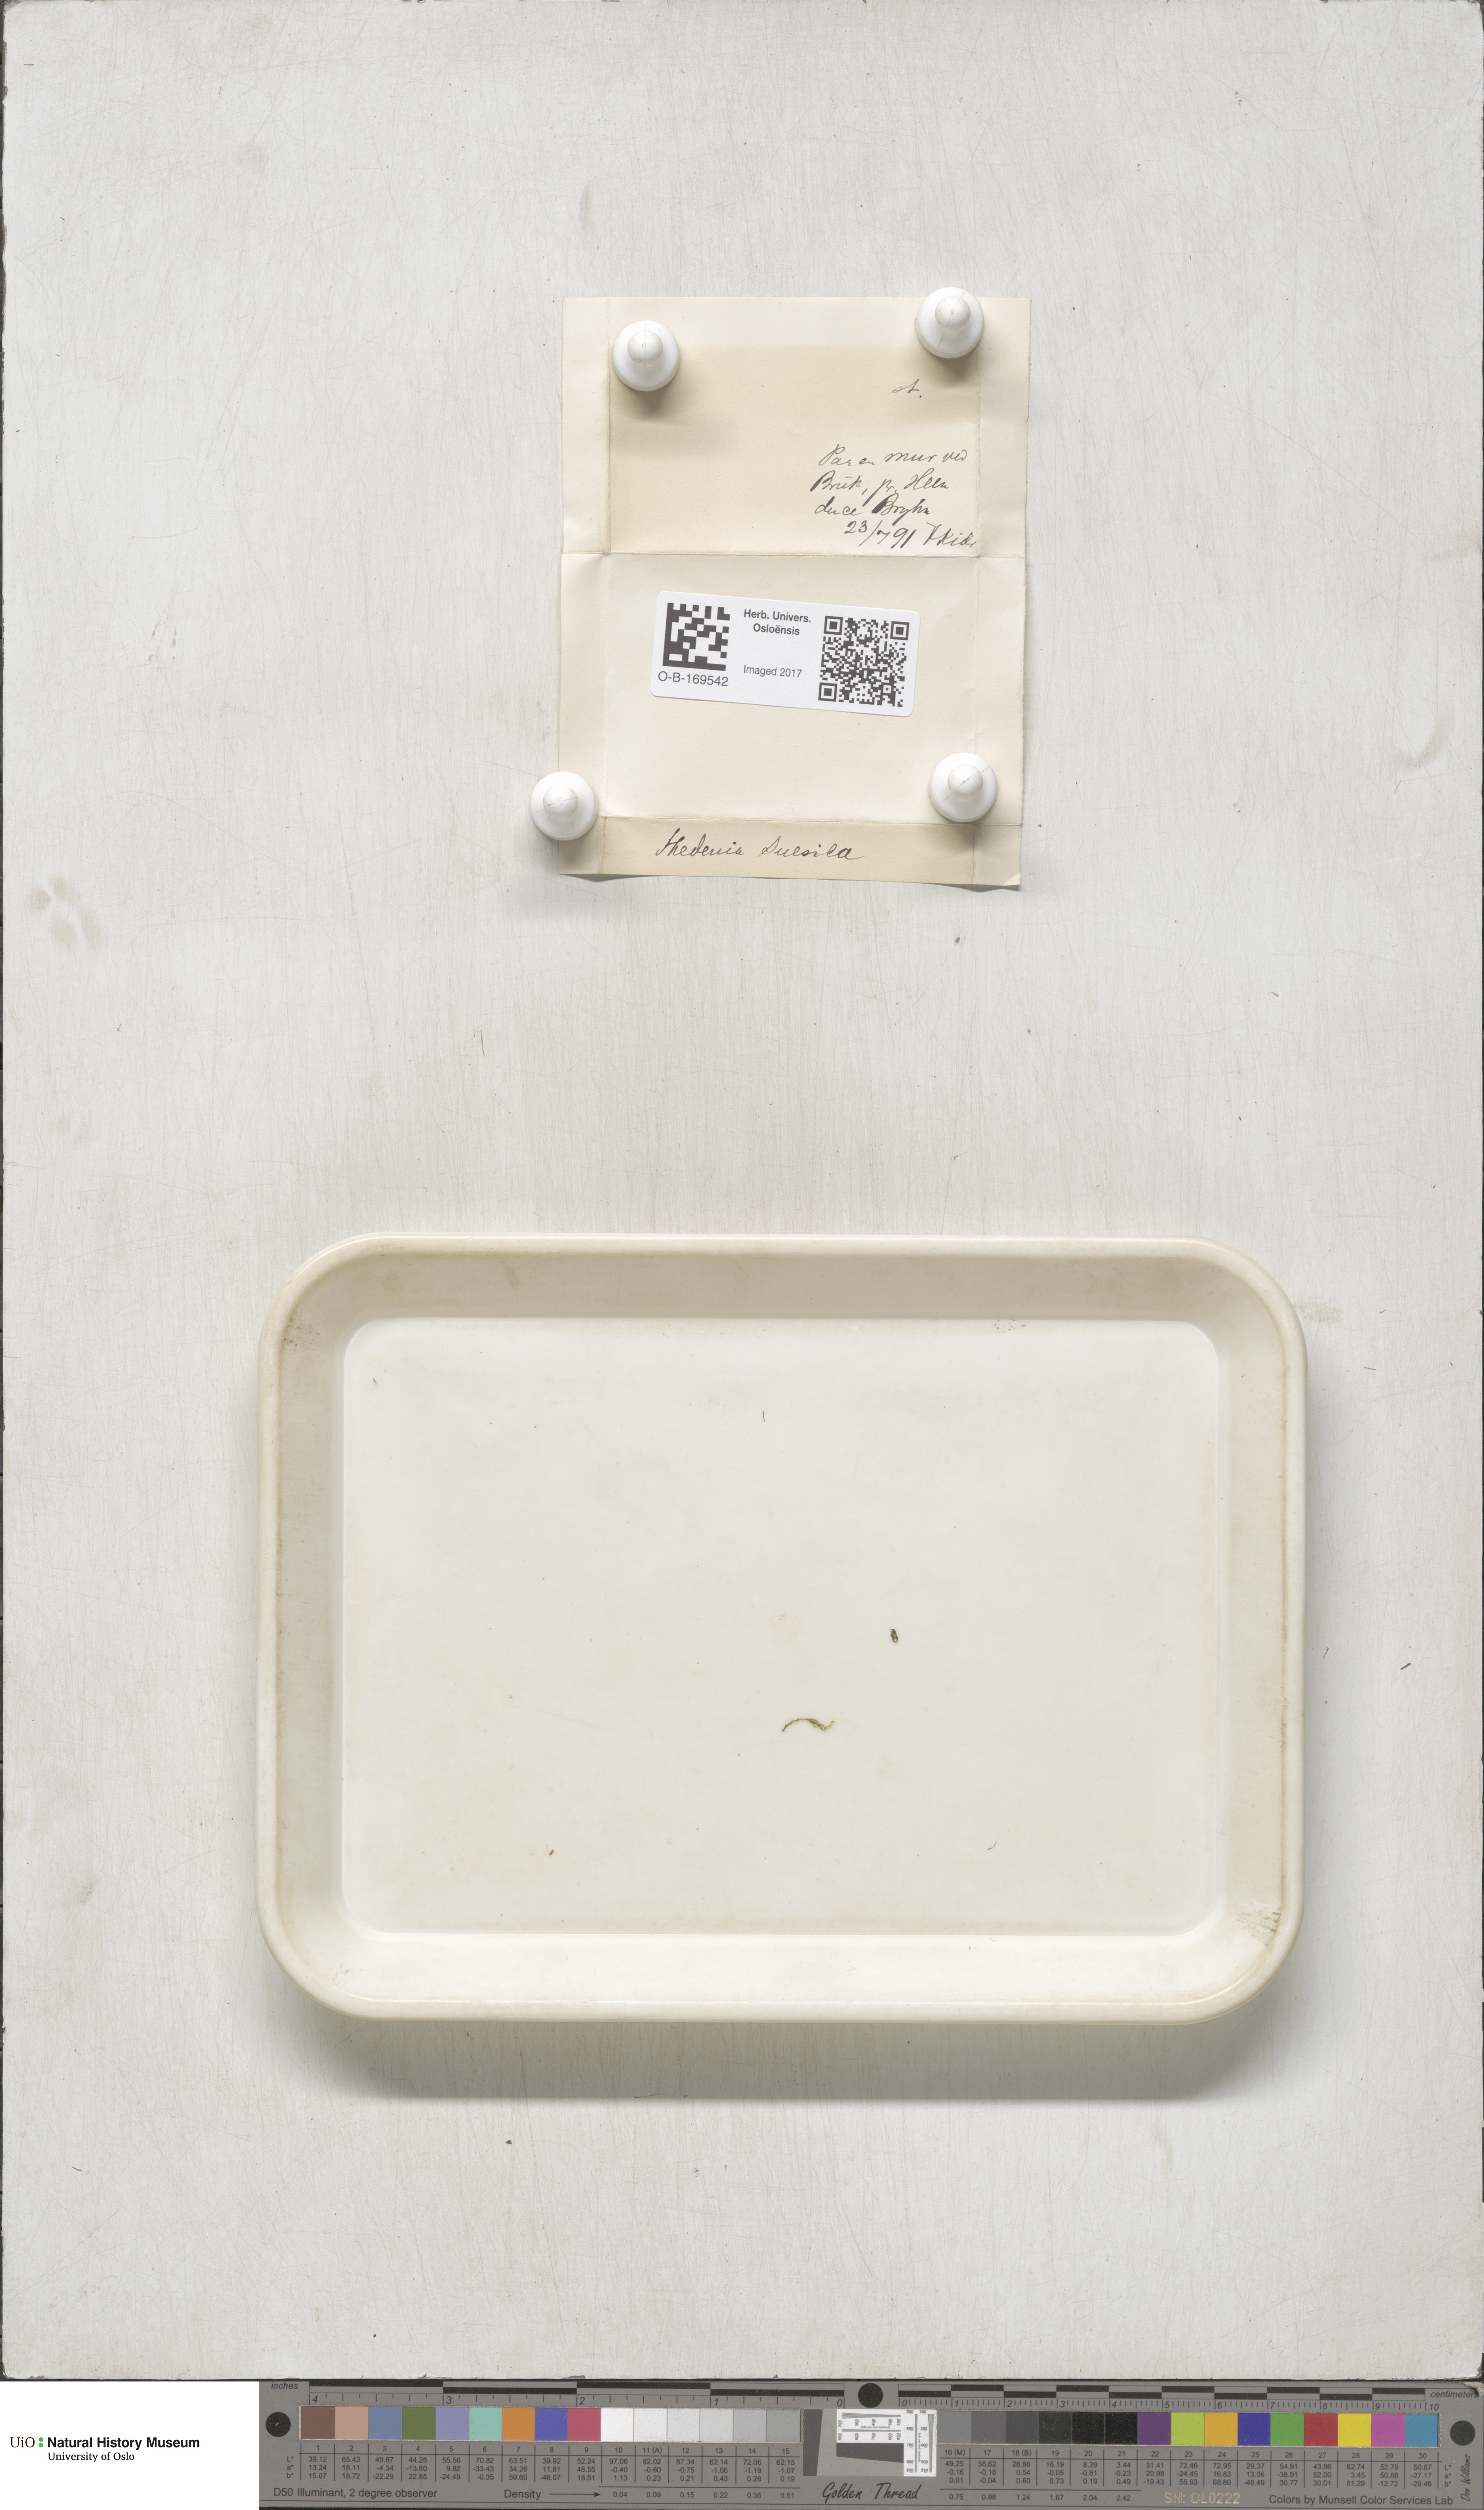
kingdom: Plantae
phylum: Bryophyta
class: Bryopsida
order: Hypnales
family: Pylaisiaceae
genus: Pylaisia
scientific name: Pylaisia polyantha
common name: Many-flowered leskea
